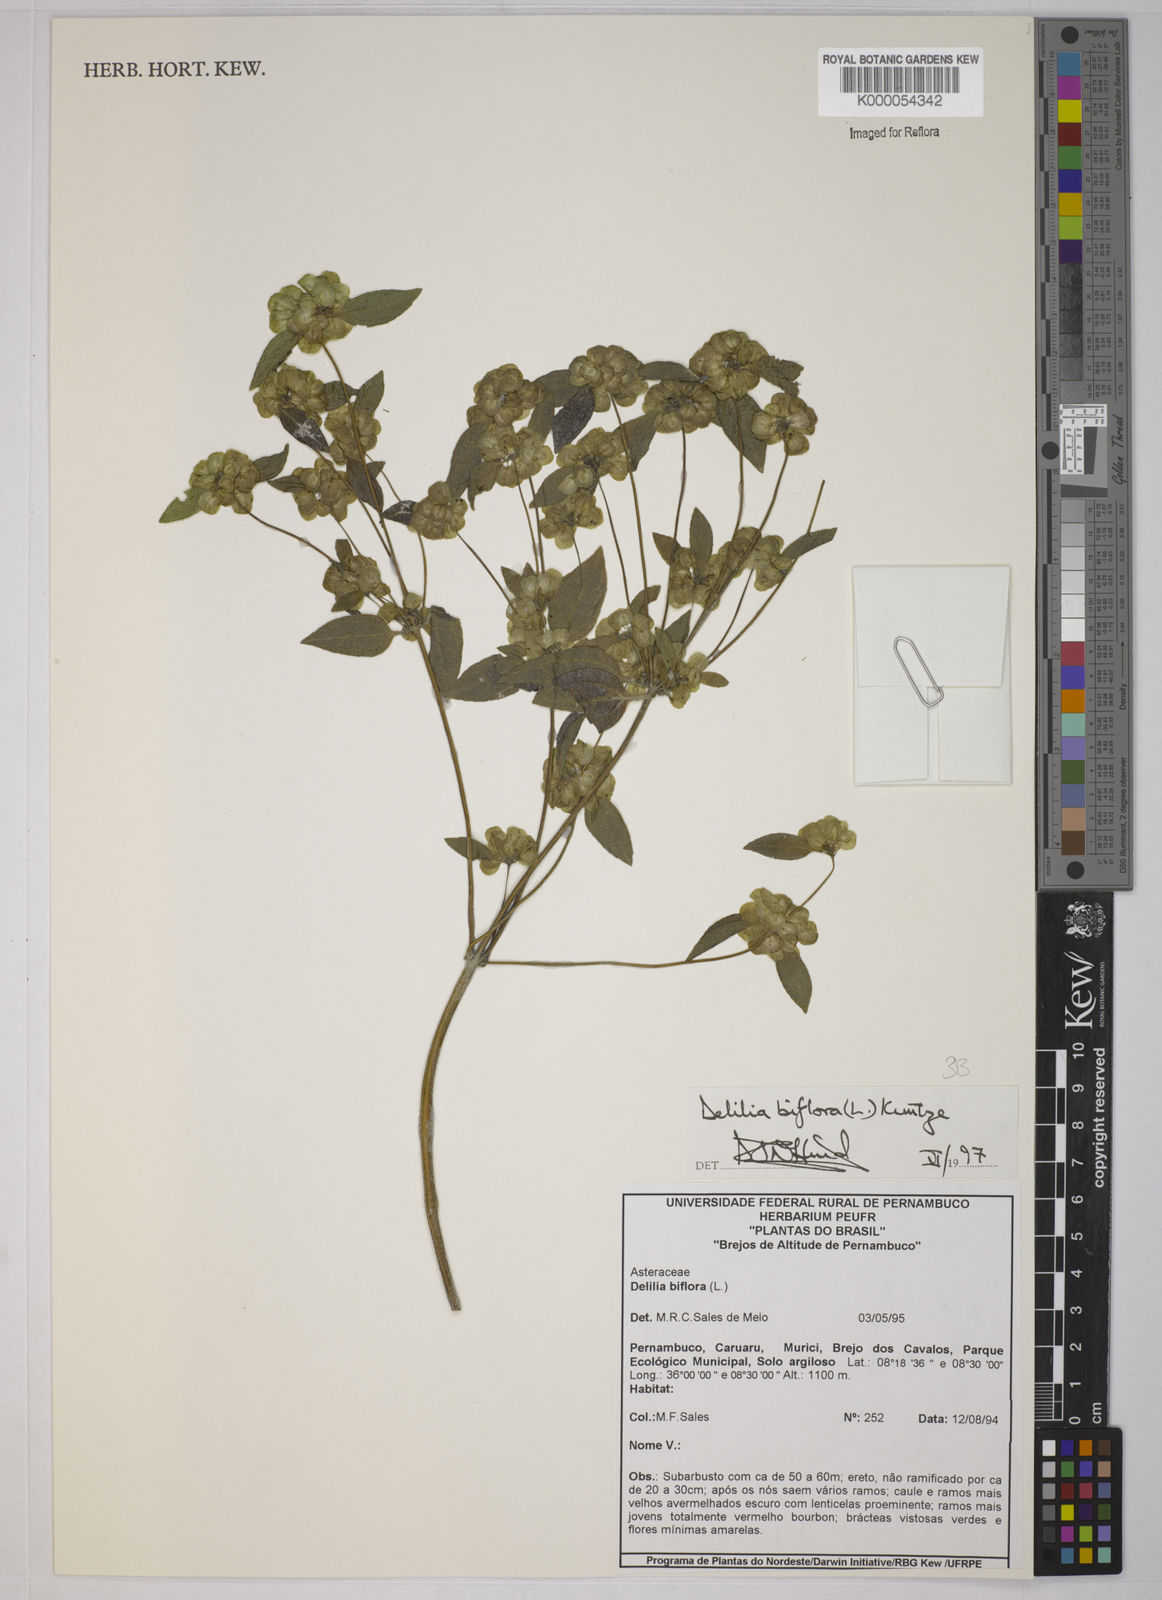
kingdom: Plantae
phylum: Tracheophyta
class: Magnoliopsida
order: Asterales
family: Asteraceae
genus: Delilia
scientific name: Delilia biflora
